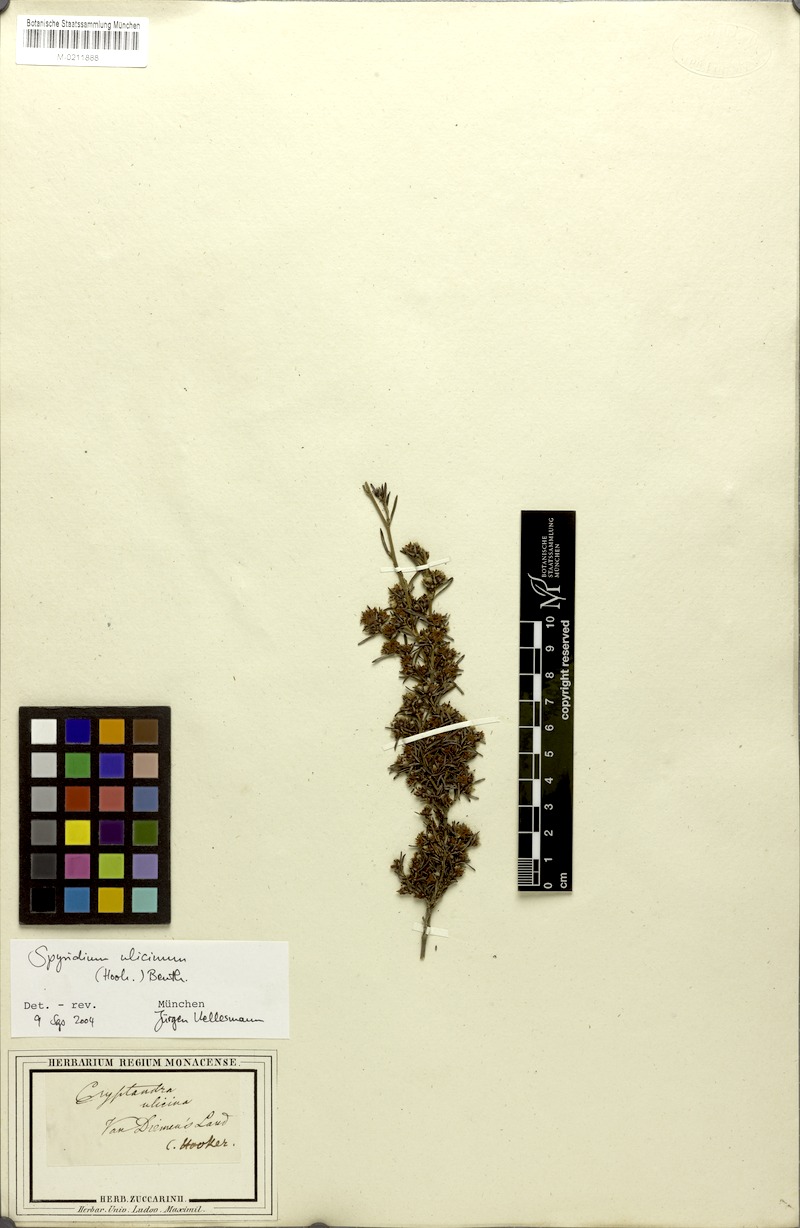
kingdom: Plantae
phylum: Tracheophyta
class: Magnoliopsida
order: Rosales
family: Rhamnaceae
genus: Spyridium
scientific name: Spyridium ulicinum
